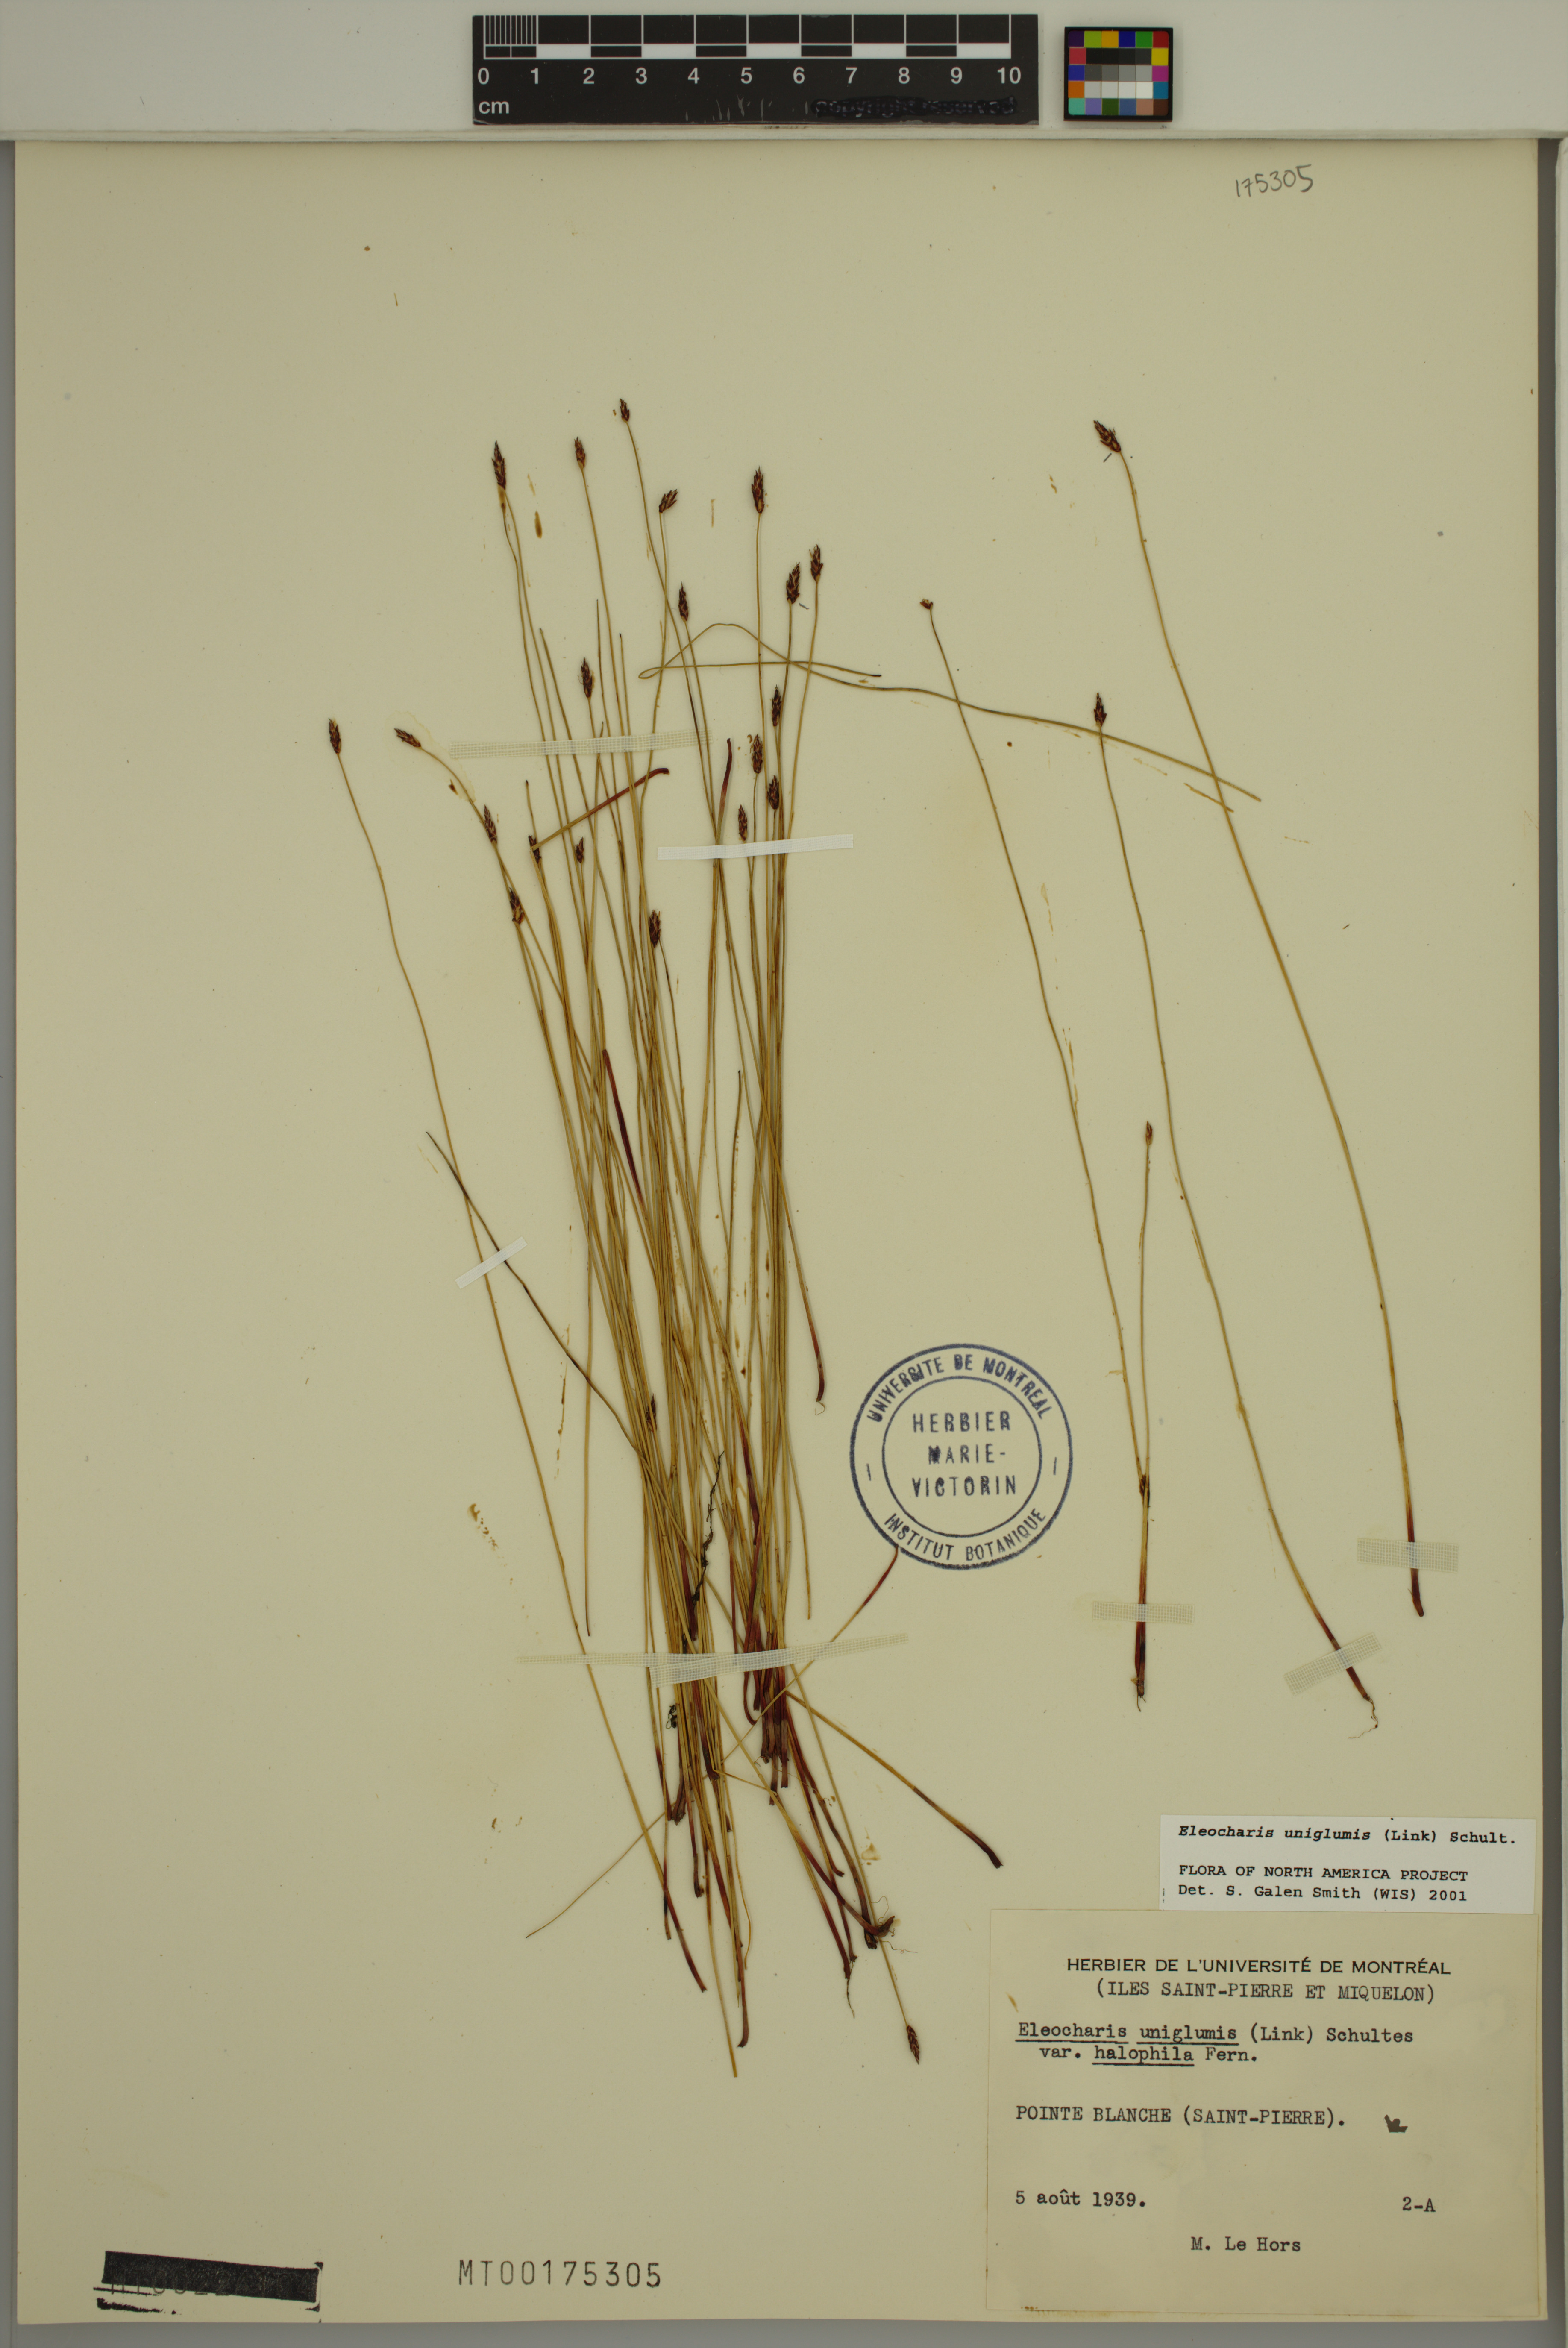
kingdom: Plantae
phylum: Tracheophyta
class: Liliopsida
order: Poales
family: Cyperaceae
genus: Eleocharis
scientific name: Eleocharis uniglumis
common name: Slender spike-rush
